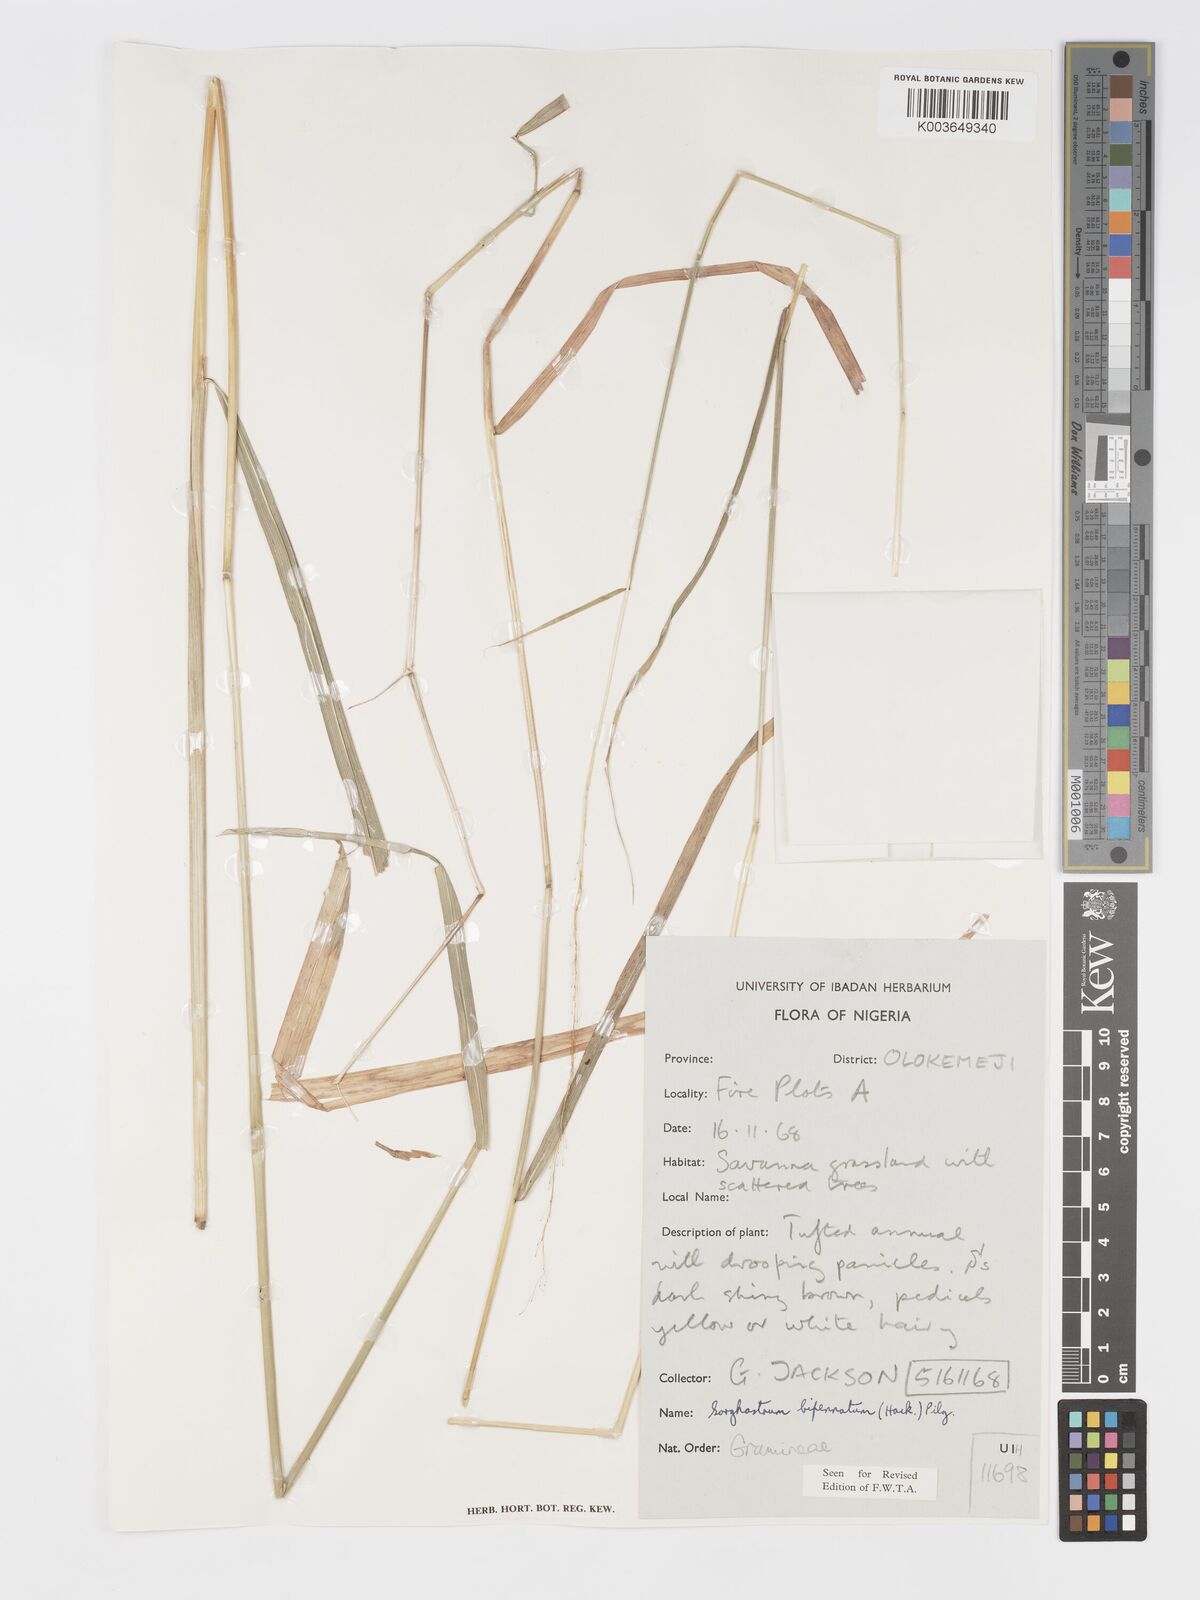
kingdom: Plantae
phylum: Tracheophyta
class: Liliopsida
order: Poales
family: Poaceae
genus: Sorghastrum
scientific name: Sorghastrum incompletum
